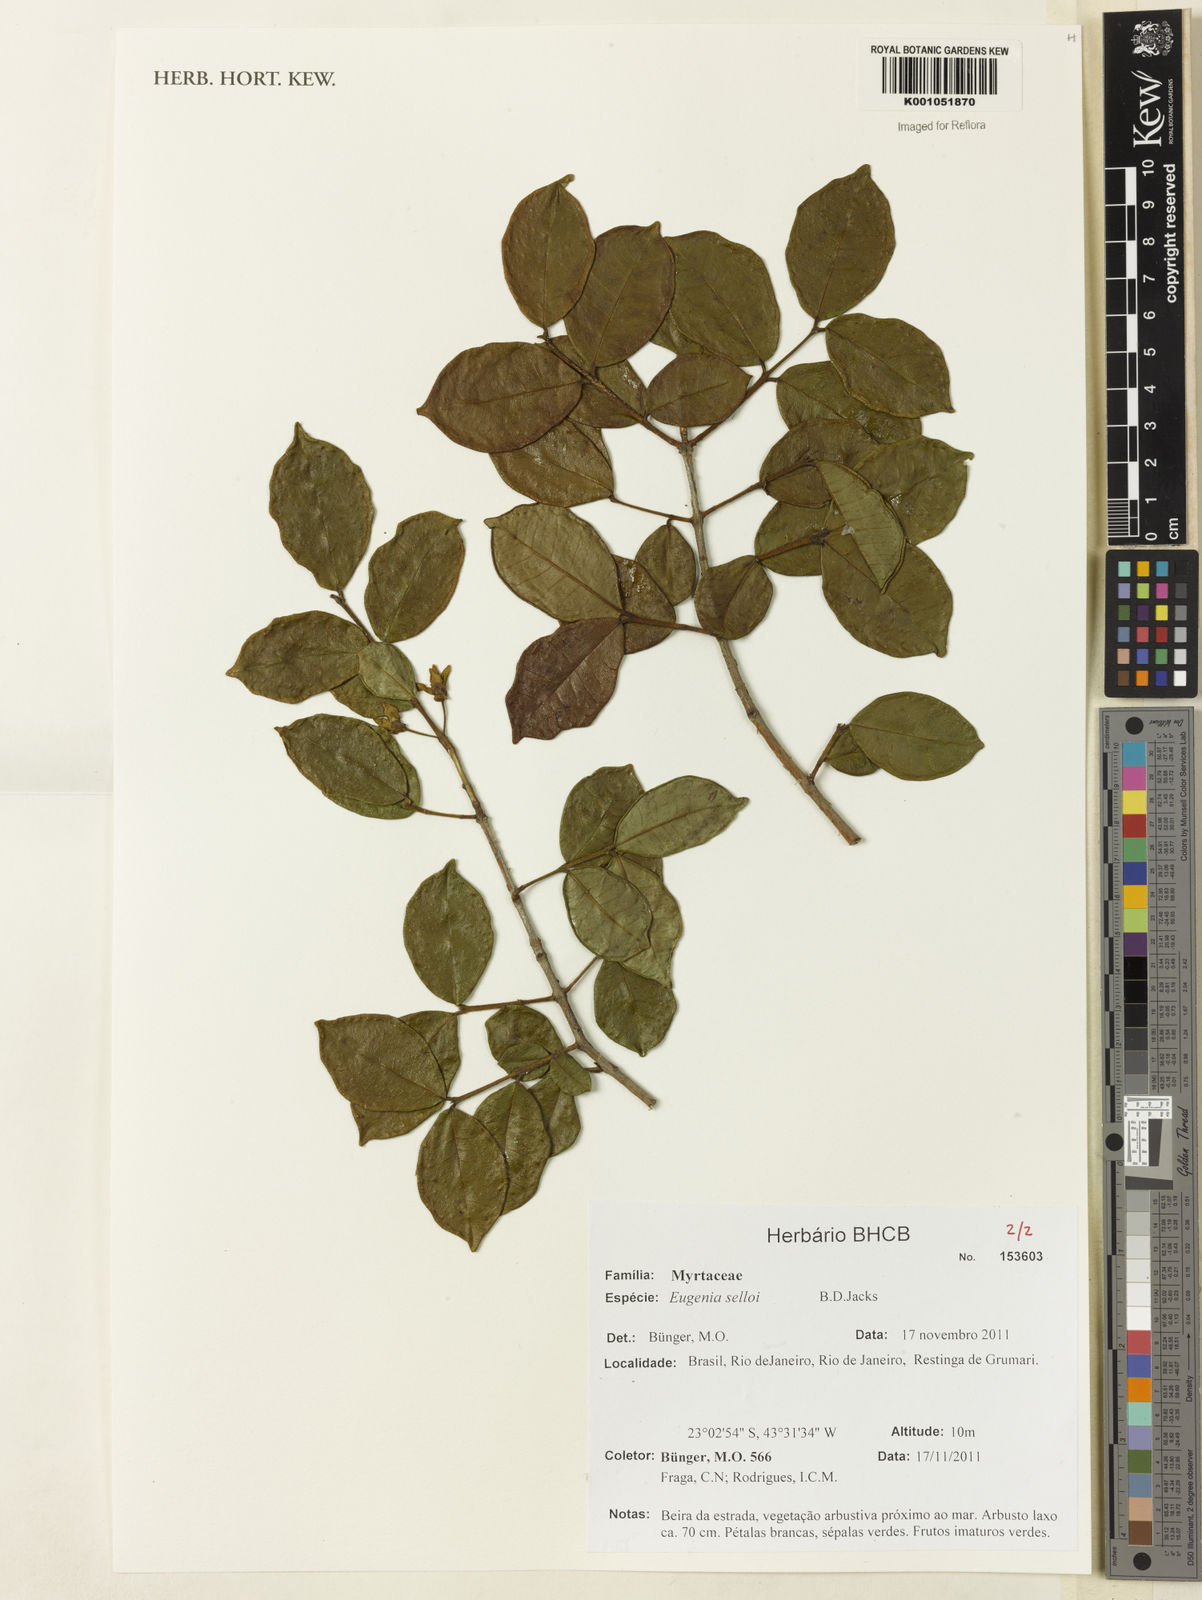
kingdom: Plantae
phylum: Tracheophyta
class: Magnoliopsida
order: Myrtales
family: Myrtaceae
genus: Eugenia
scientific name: Eugenia selloi
